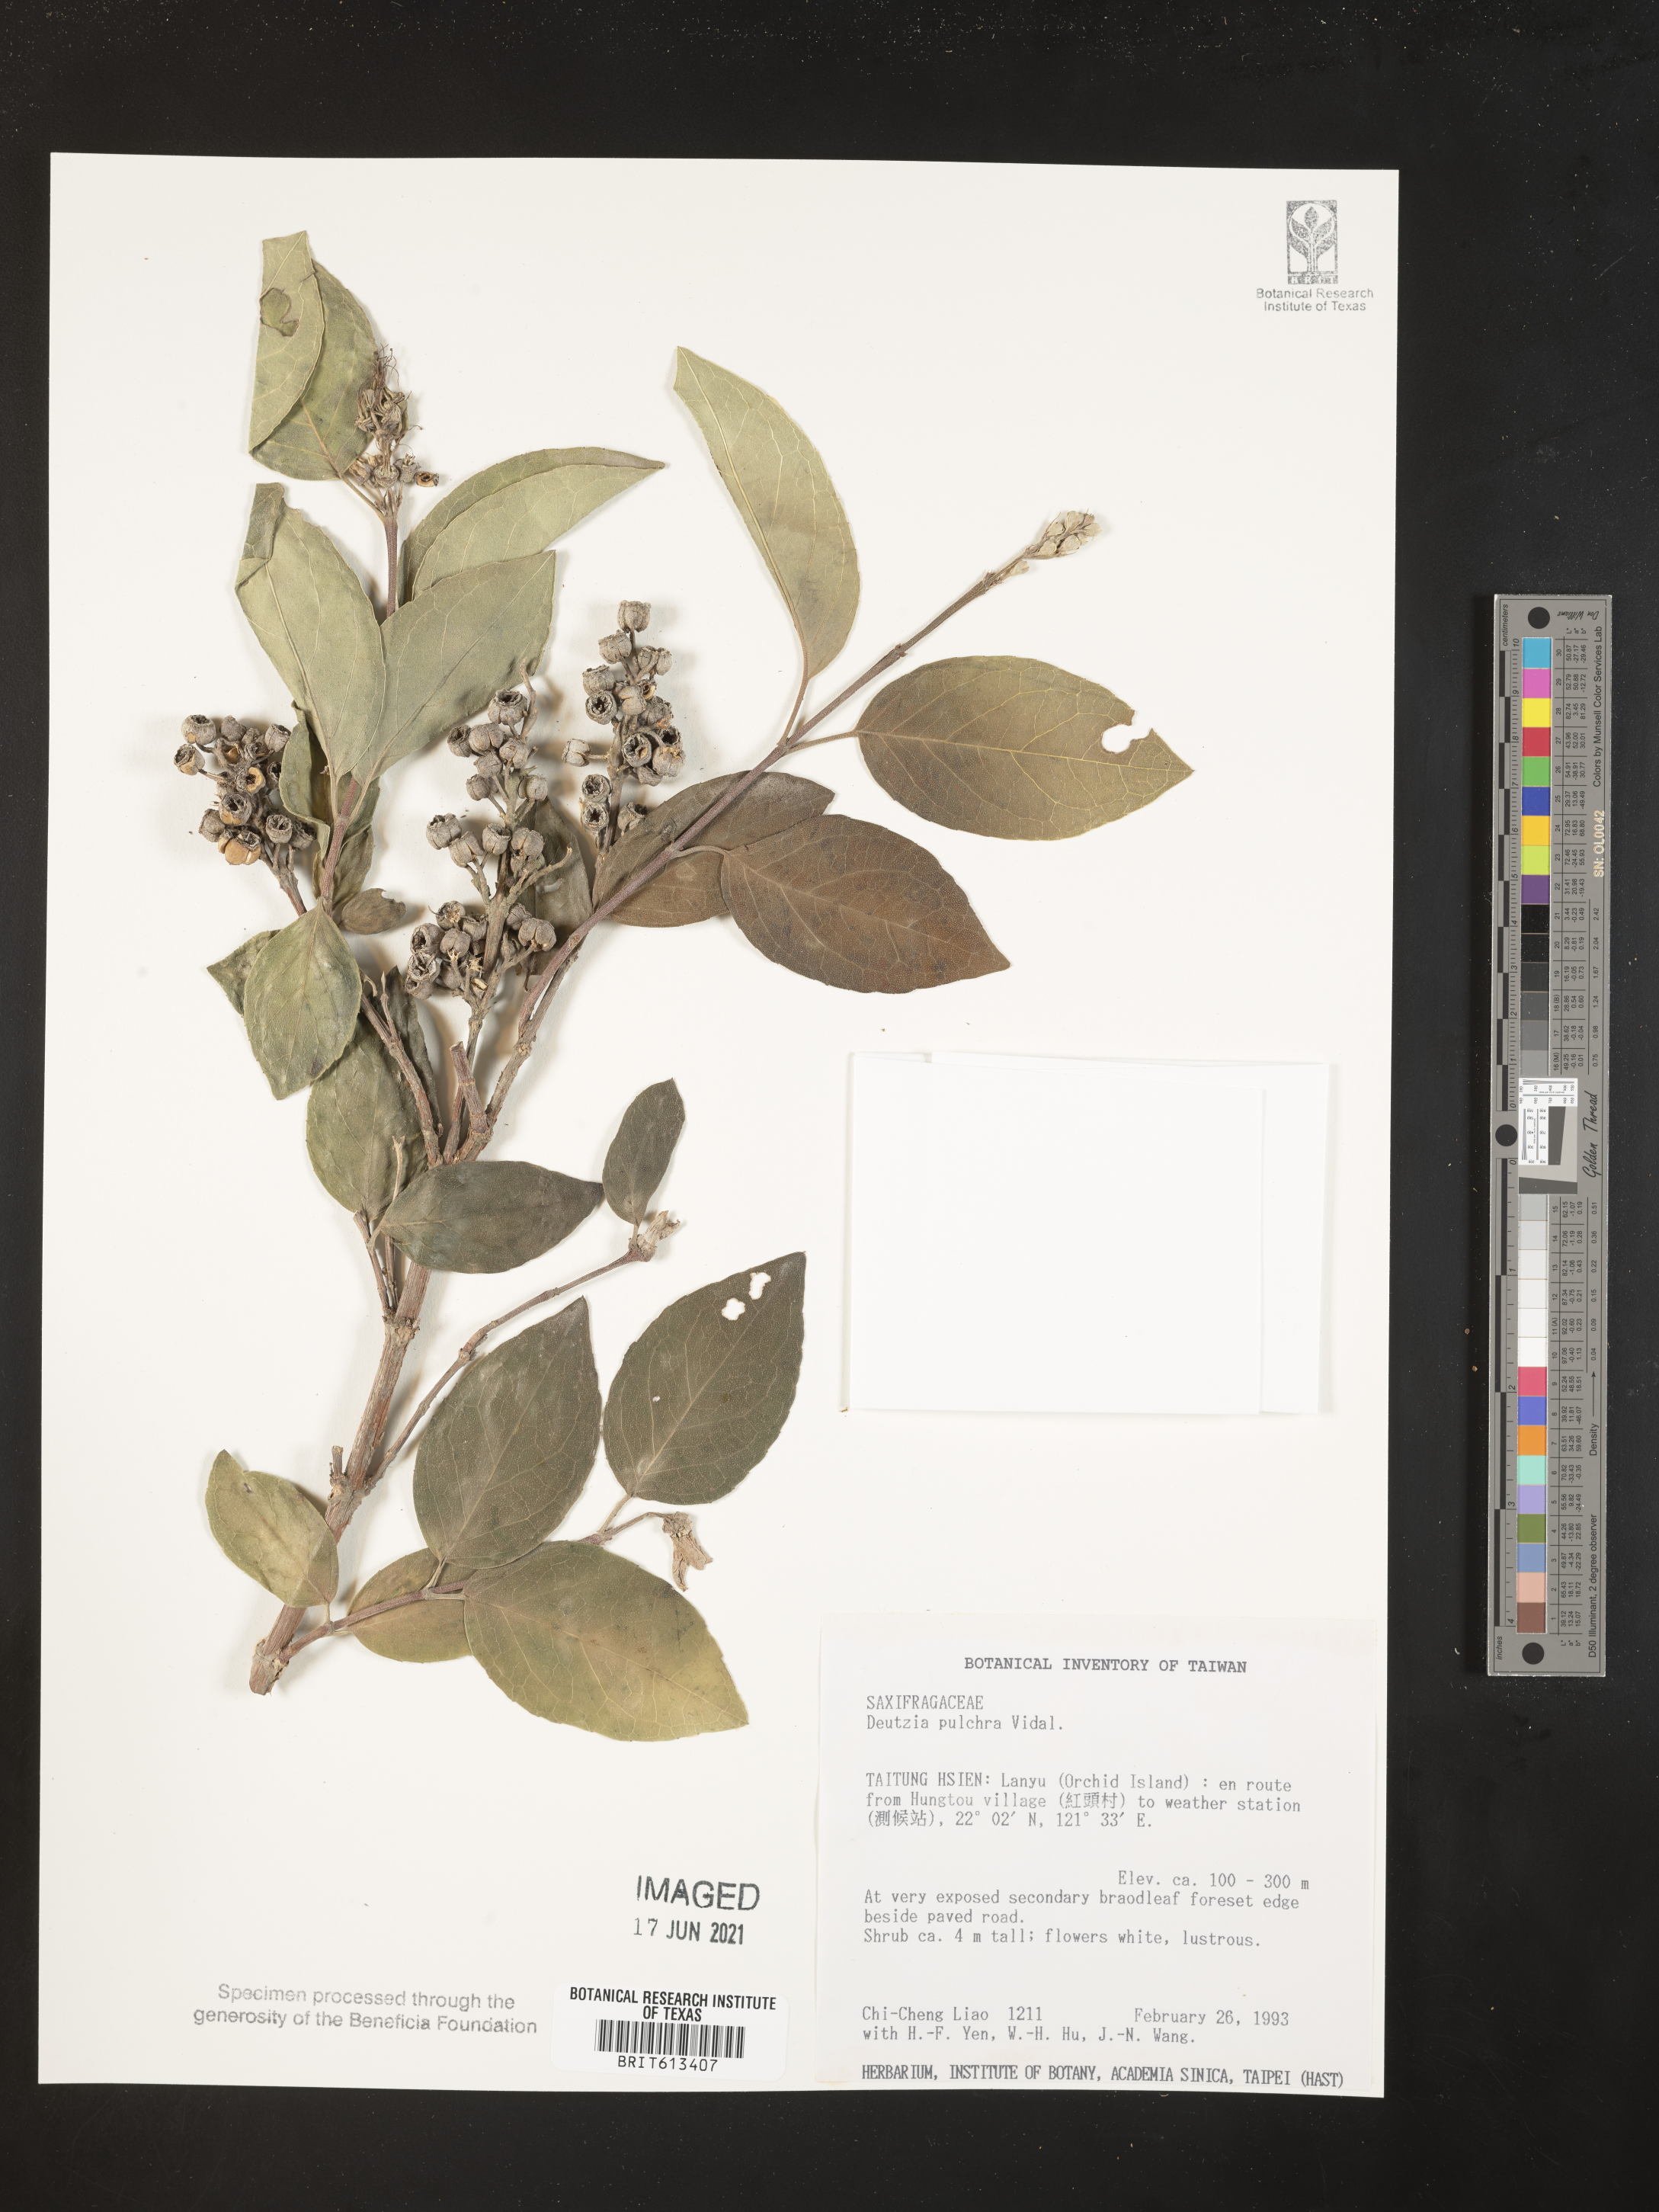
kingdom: Plantae
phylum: Tracheophyta
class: Magnoliopsida
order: Cornales
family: Hydrangeaceae
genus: Deutzia
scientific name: Deutzia pulchra
